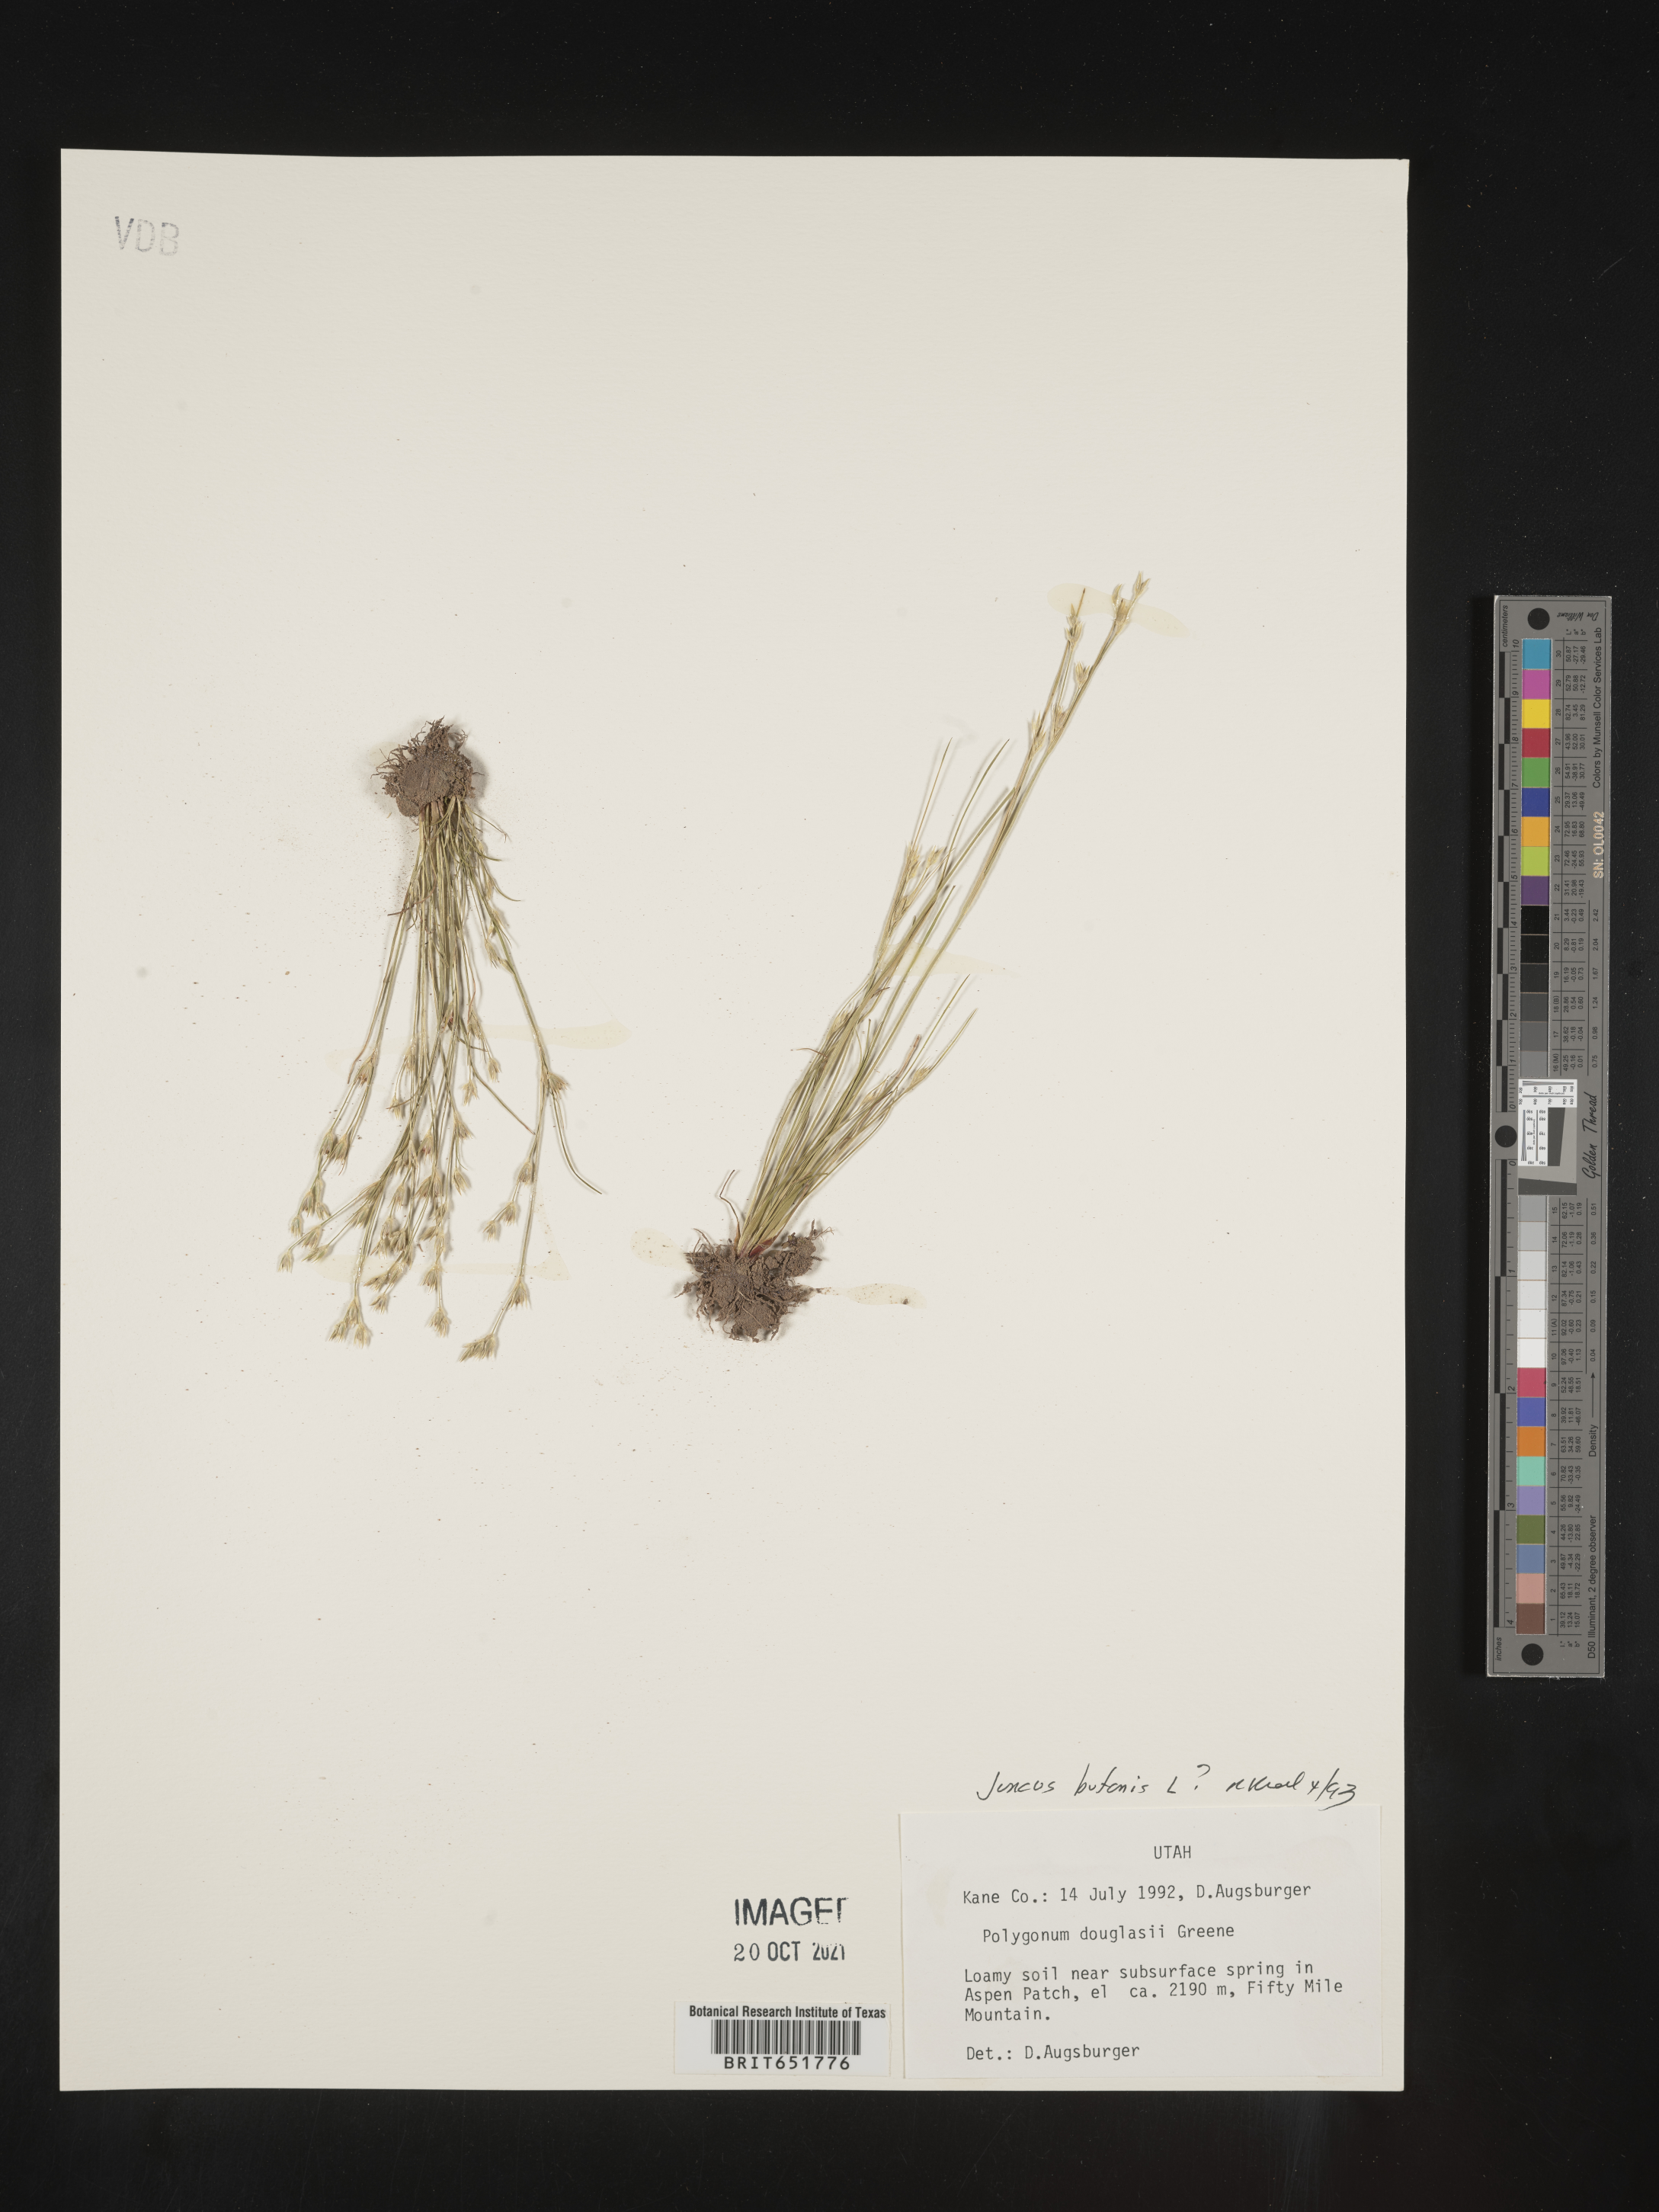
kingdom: Plantae
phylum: Tracheophyta
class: Liliopsida
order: Poales
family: Juncaceae
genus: Juncus
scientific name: Juncus bufonius
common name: Toad rush
